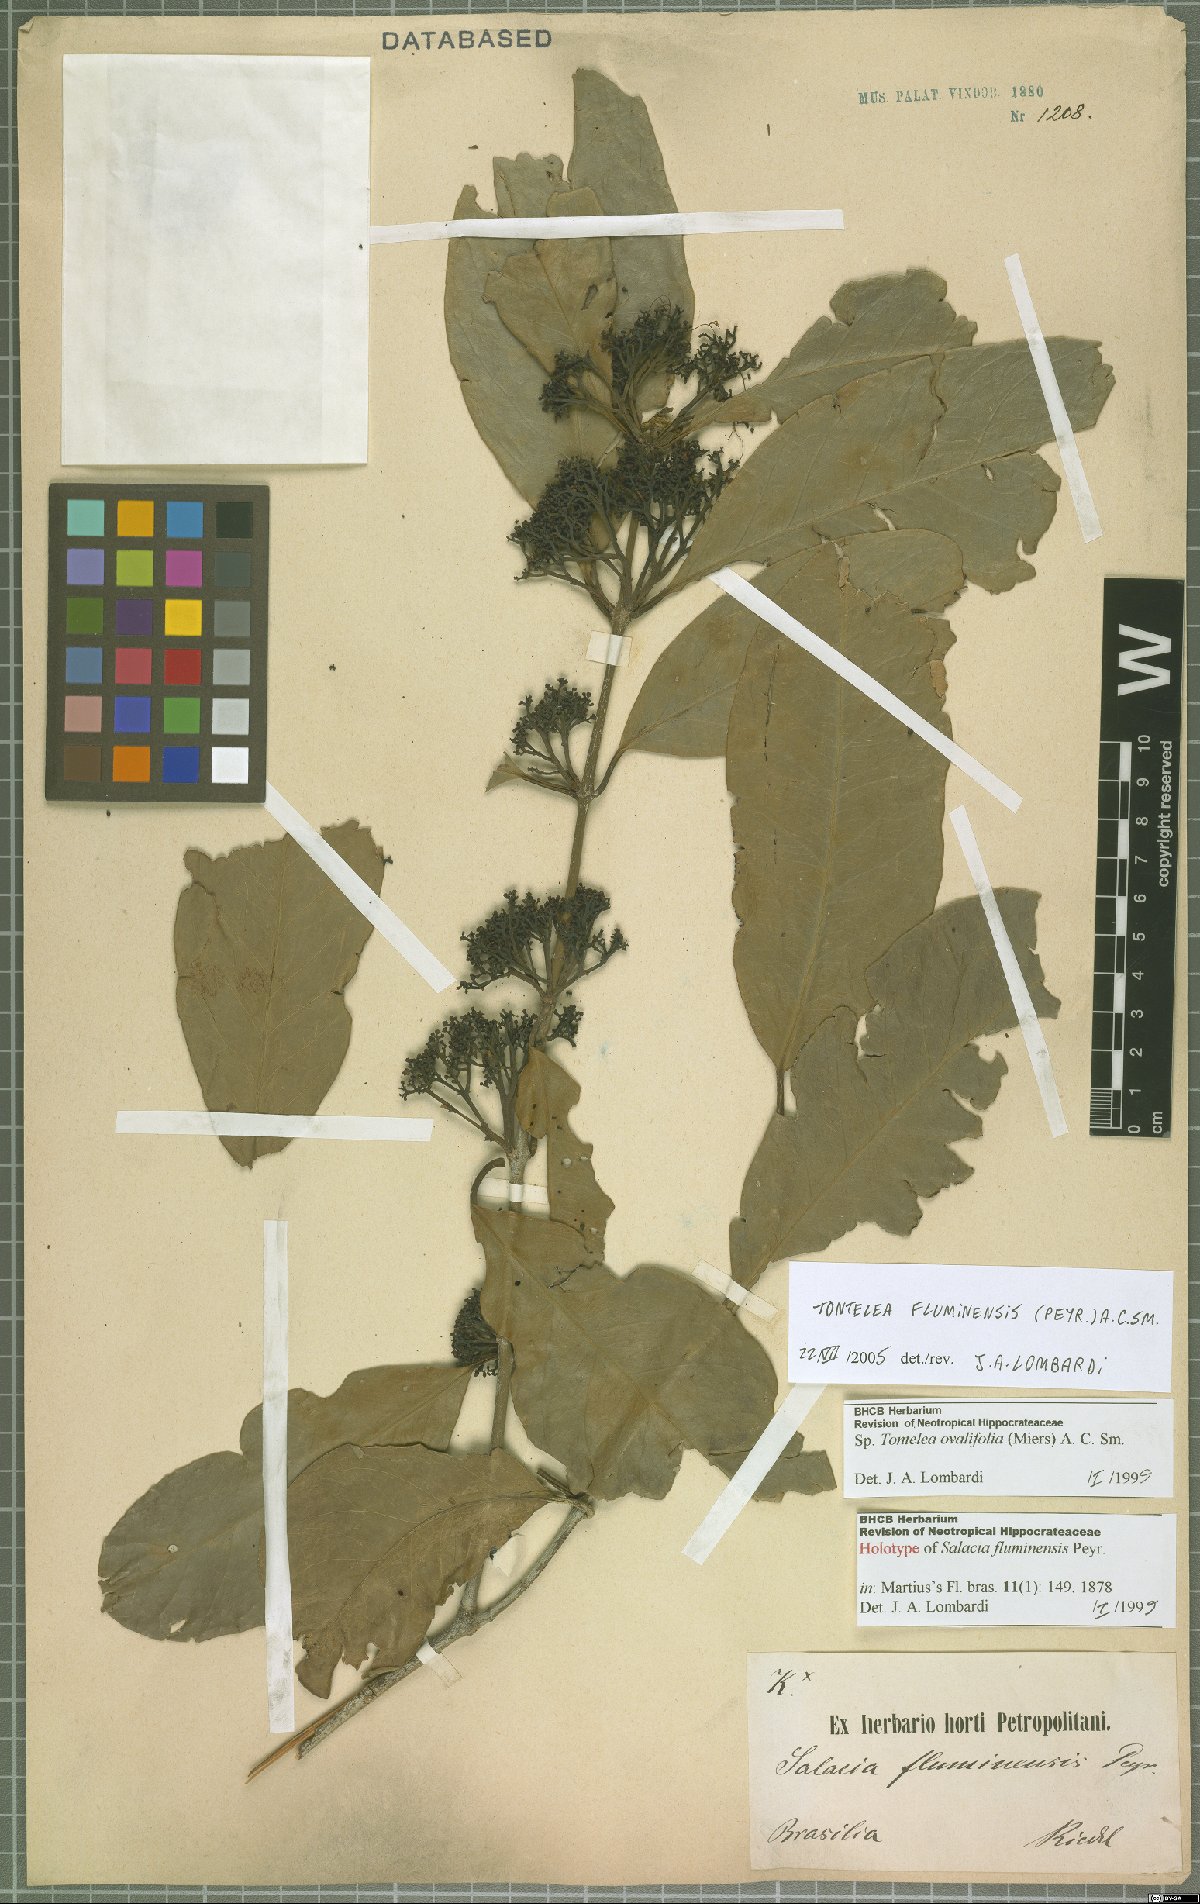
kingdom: Plantae
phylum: Tracheophyta
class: Magnoliopsida
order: Celastrales
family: Celastraceae
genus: Tontelea
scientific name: Tontelea passiflora
